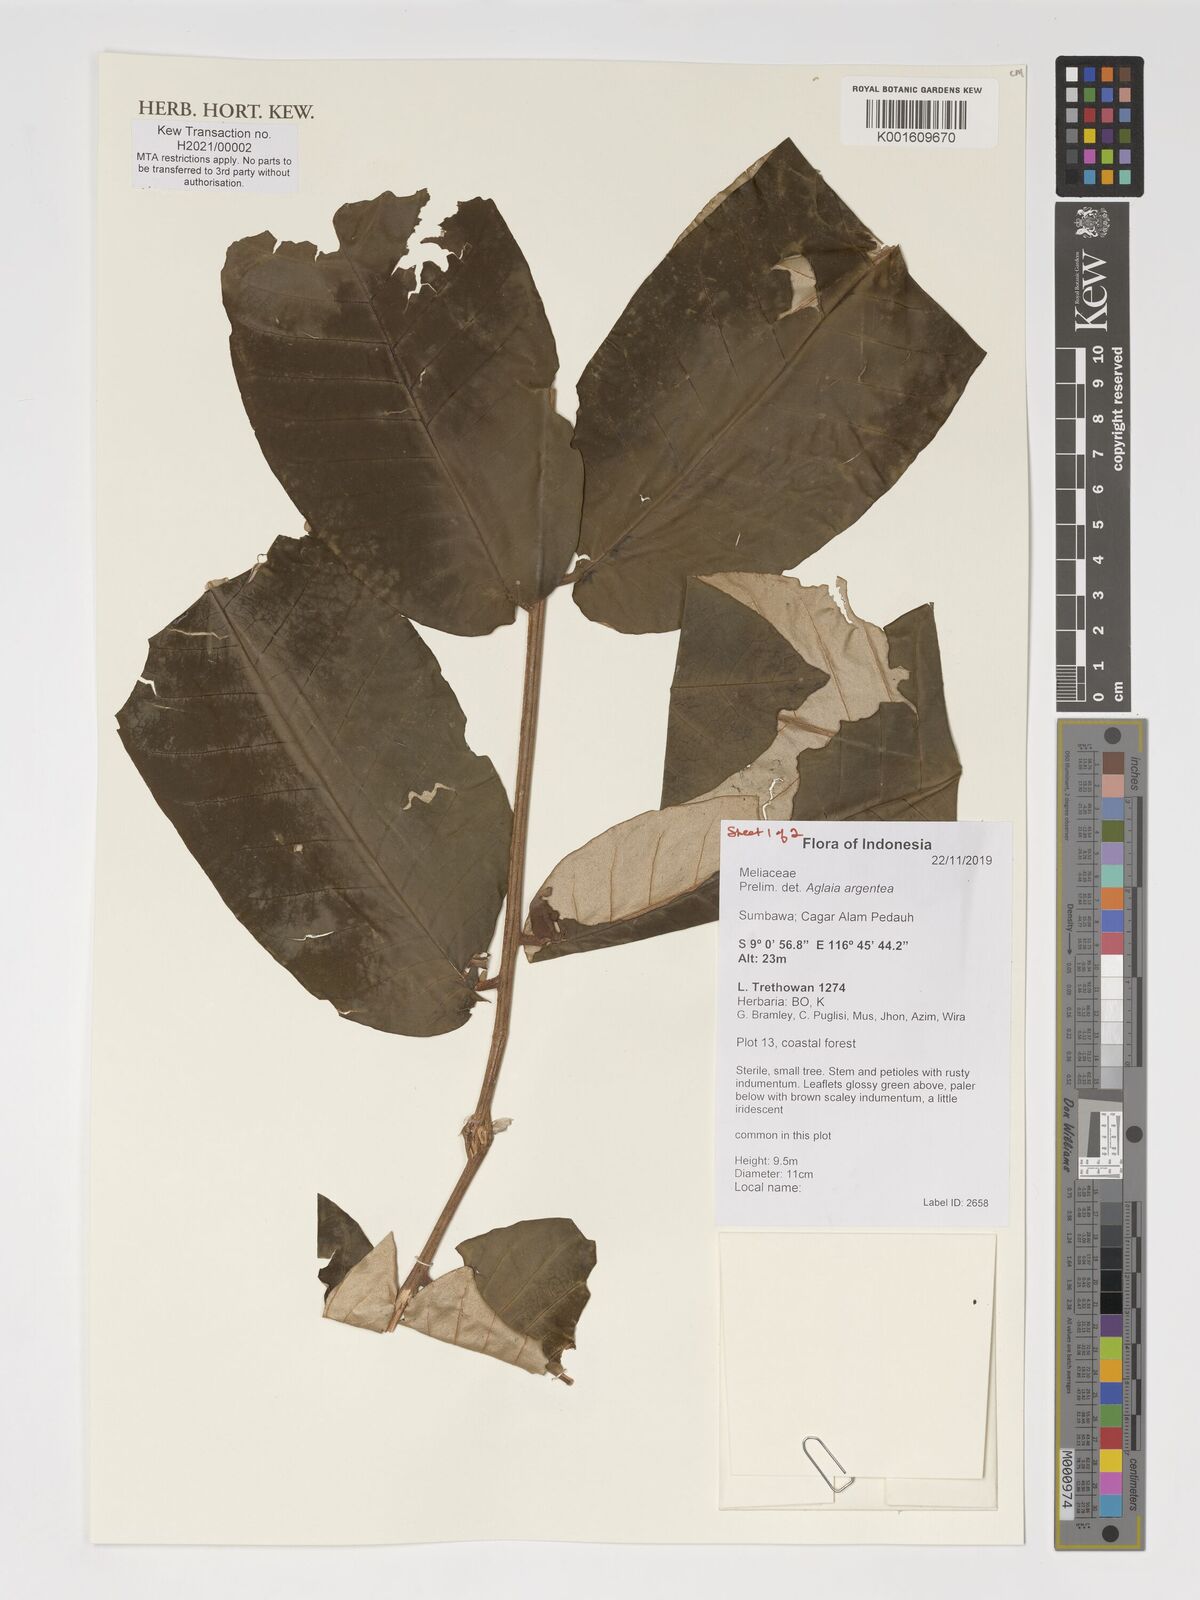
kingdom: Plantae
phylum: Tracheophyta
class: Magnoliopsida
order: Sapindales
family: Meliaceae
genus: Aglaia
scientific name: Aglaia argentea
